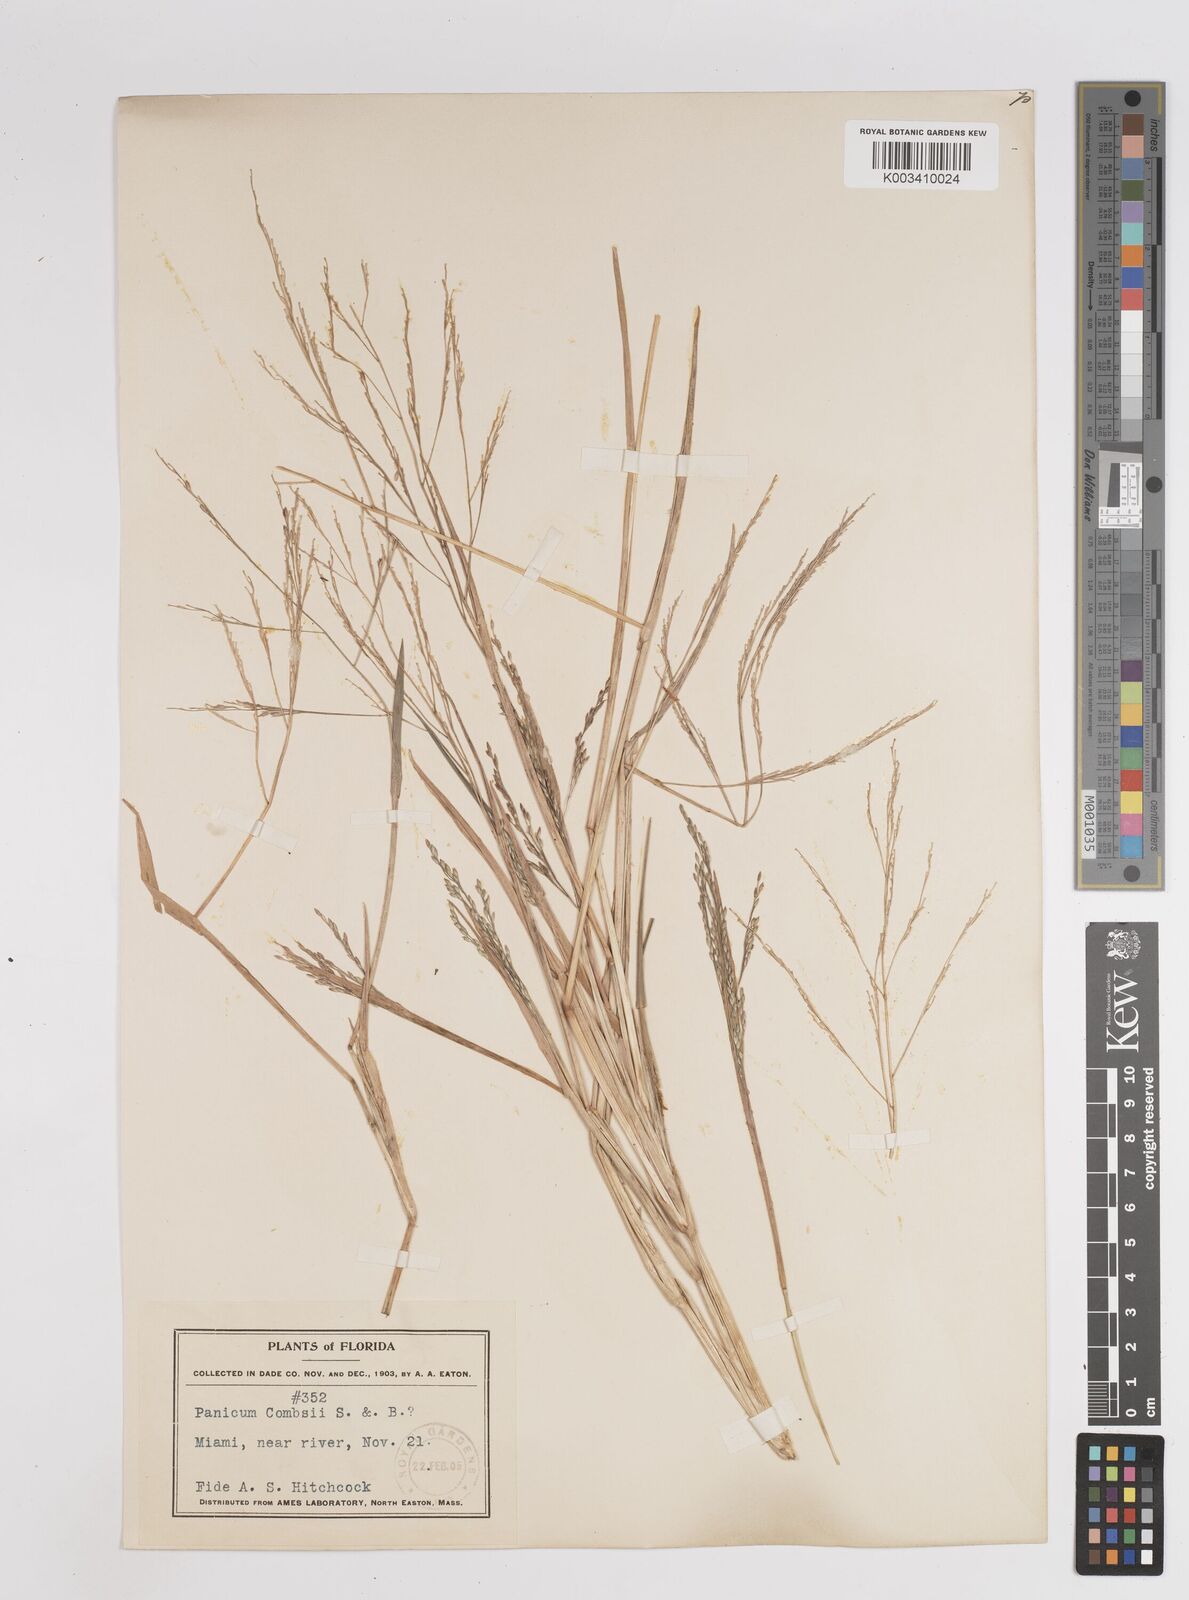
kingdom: Plantae
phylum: Tracheophyta
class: Liliopsida
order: Poales
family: Poaceae
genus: Coleataenia
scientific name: Coleataenia longifolia
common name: Long-leaved panicgrass
